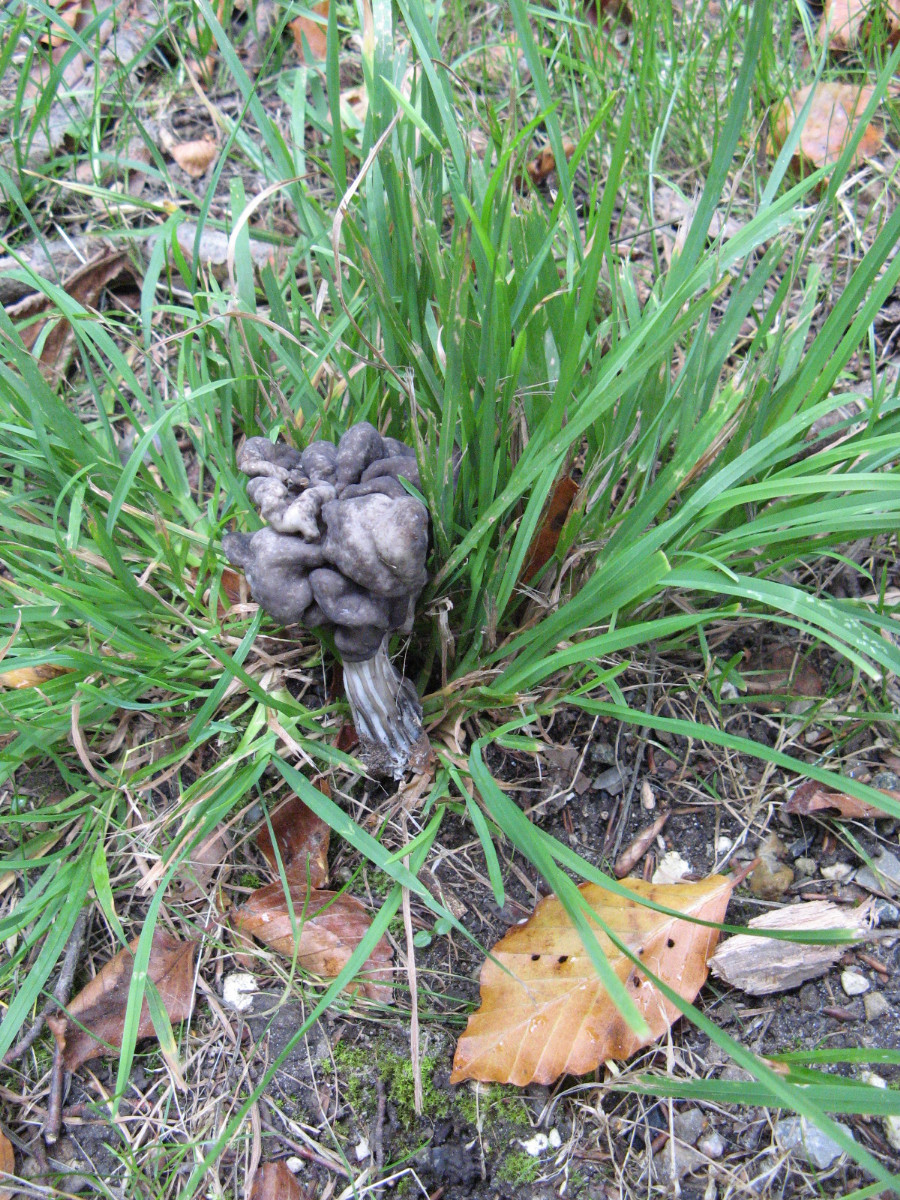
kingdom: Fungi
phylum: Ascomycota
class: Pezizomycetes
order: Pezizales
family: Helvellaceae
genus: Helvella
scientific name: Helvella lacunosa
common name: grubet foldhat
